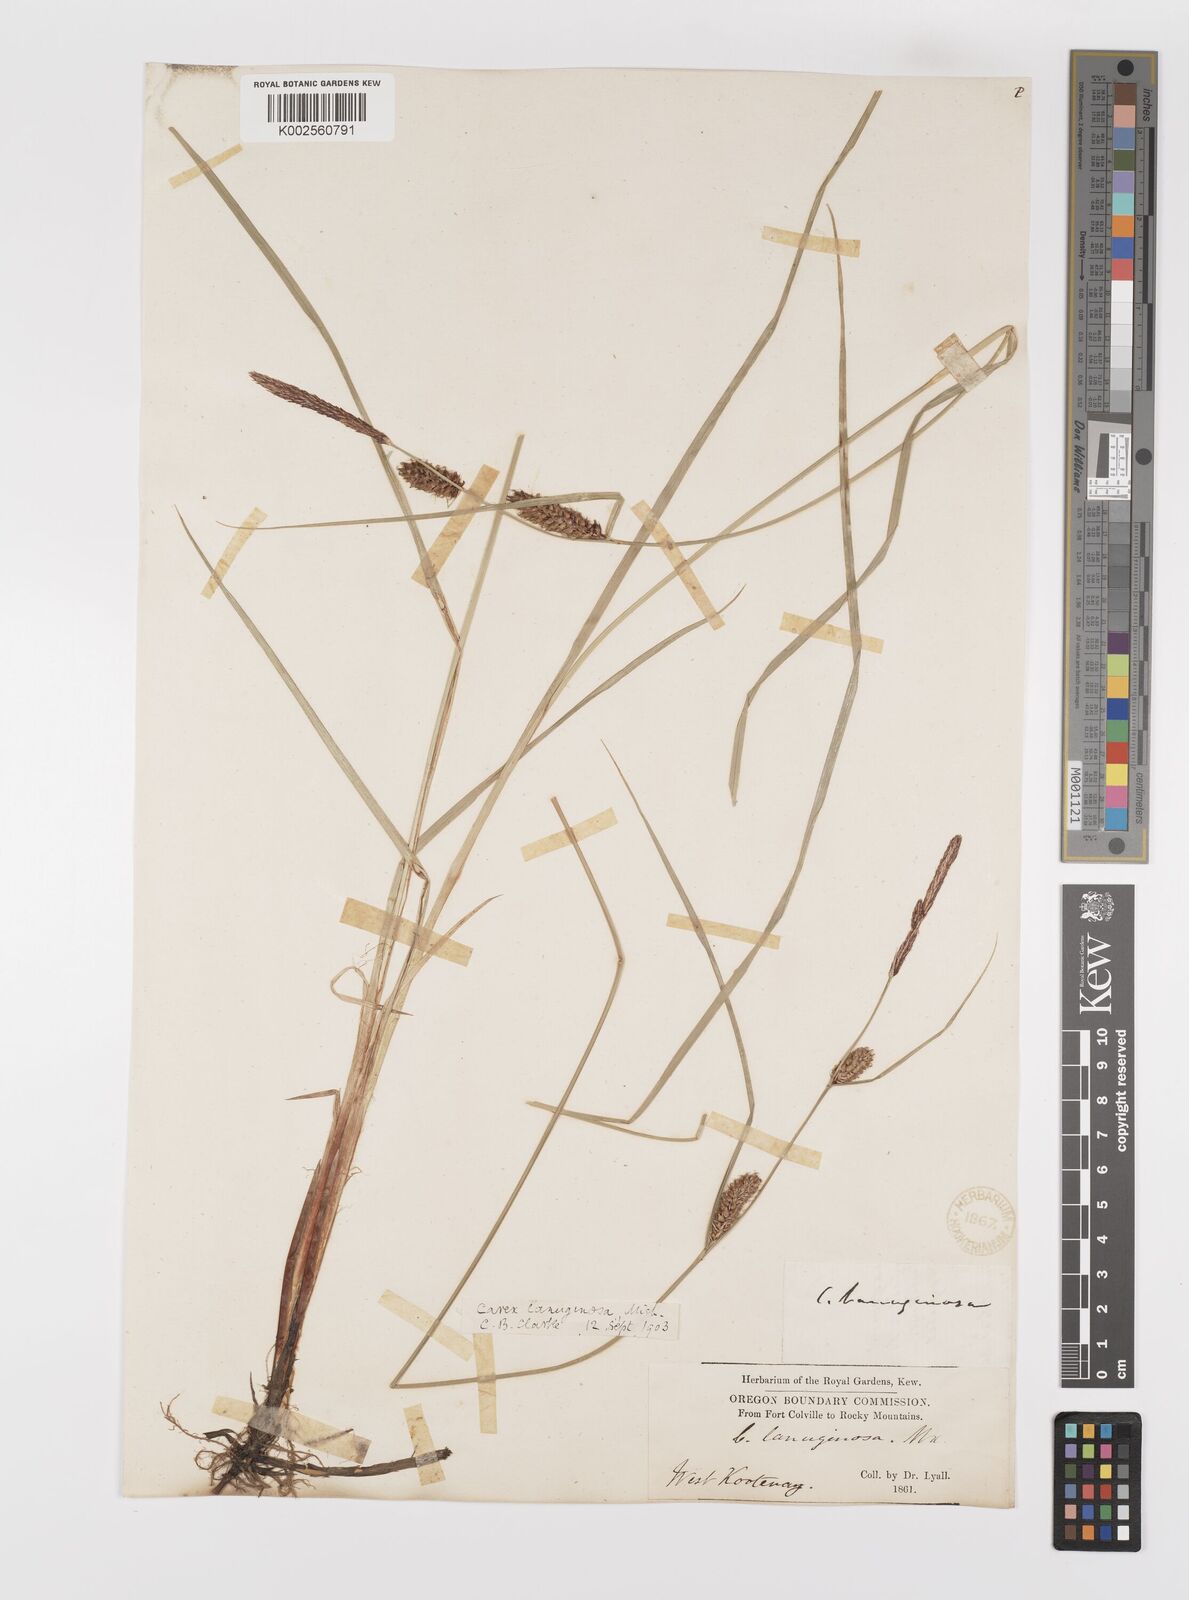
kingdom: Plantae
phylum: Tracheophyta
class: Liliopsida
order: Poales
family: Cyperaceae
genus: Carex
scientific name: Carex lasiocarpa
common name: Slender sedge
